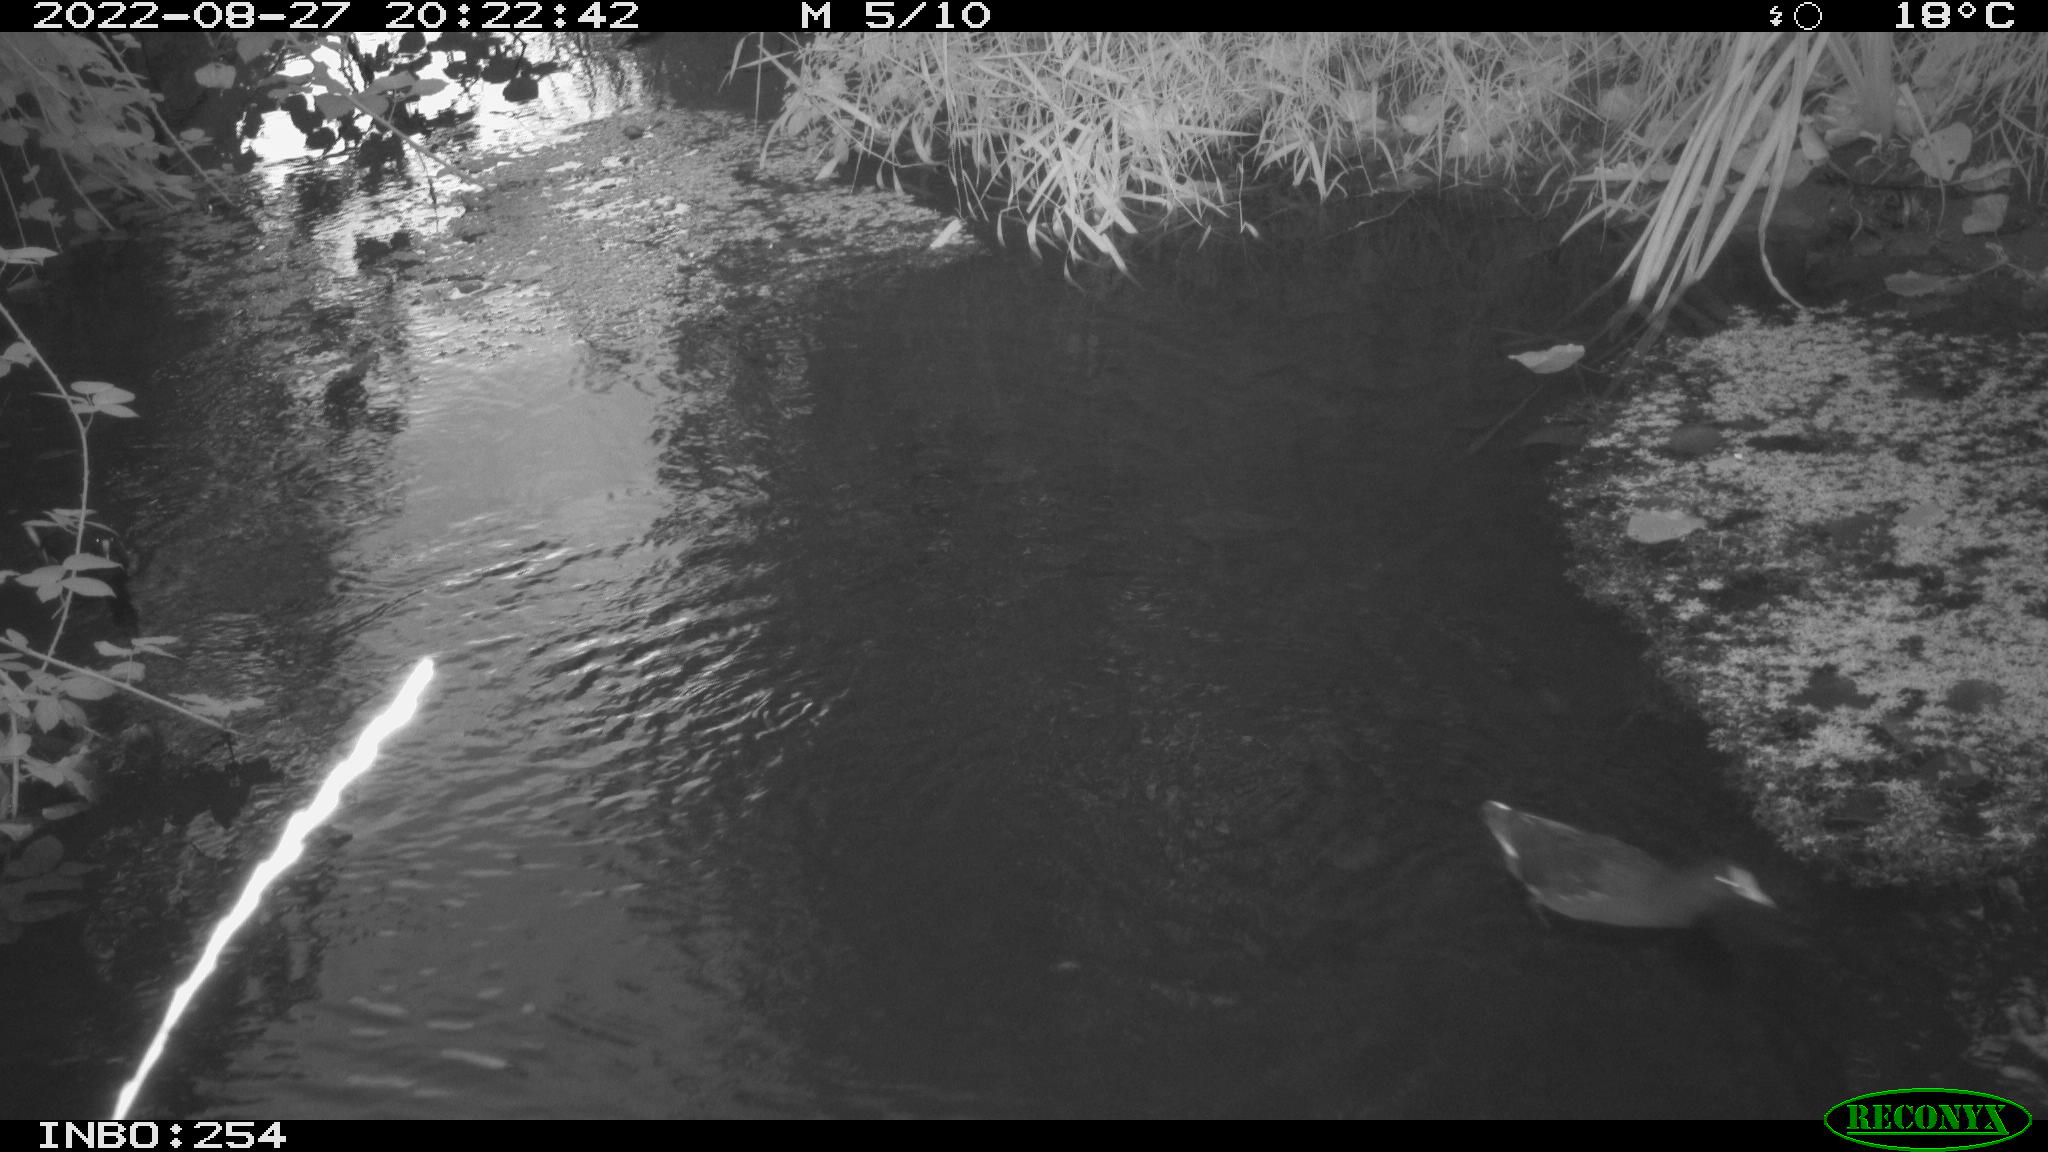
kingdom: Animalia
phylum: Chordata
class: Aves
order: Gruiformes
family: Rallidae
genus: Gallinula
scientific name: Gallinula chloropus
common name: Common moorhen
